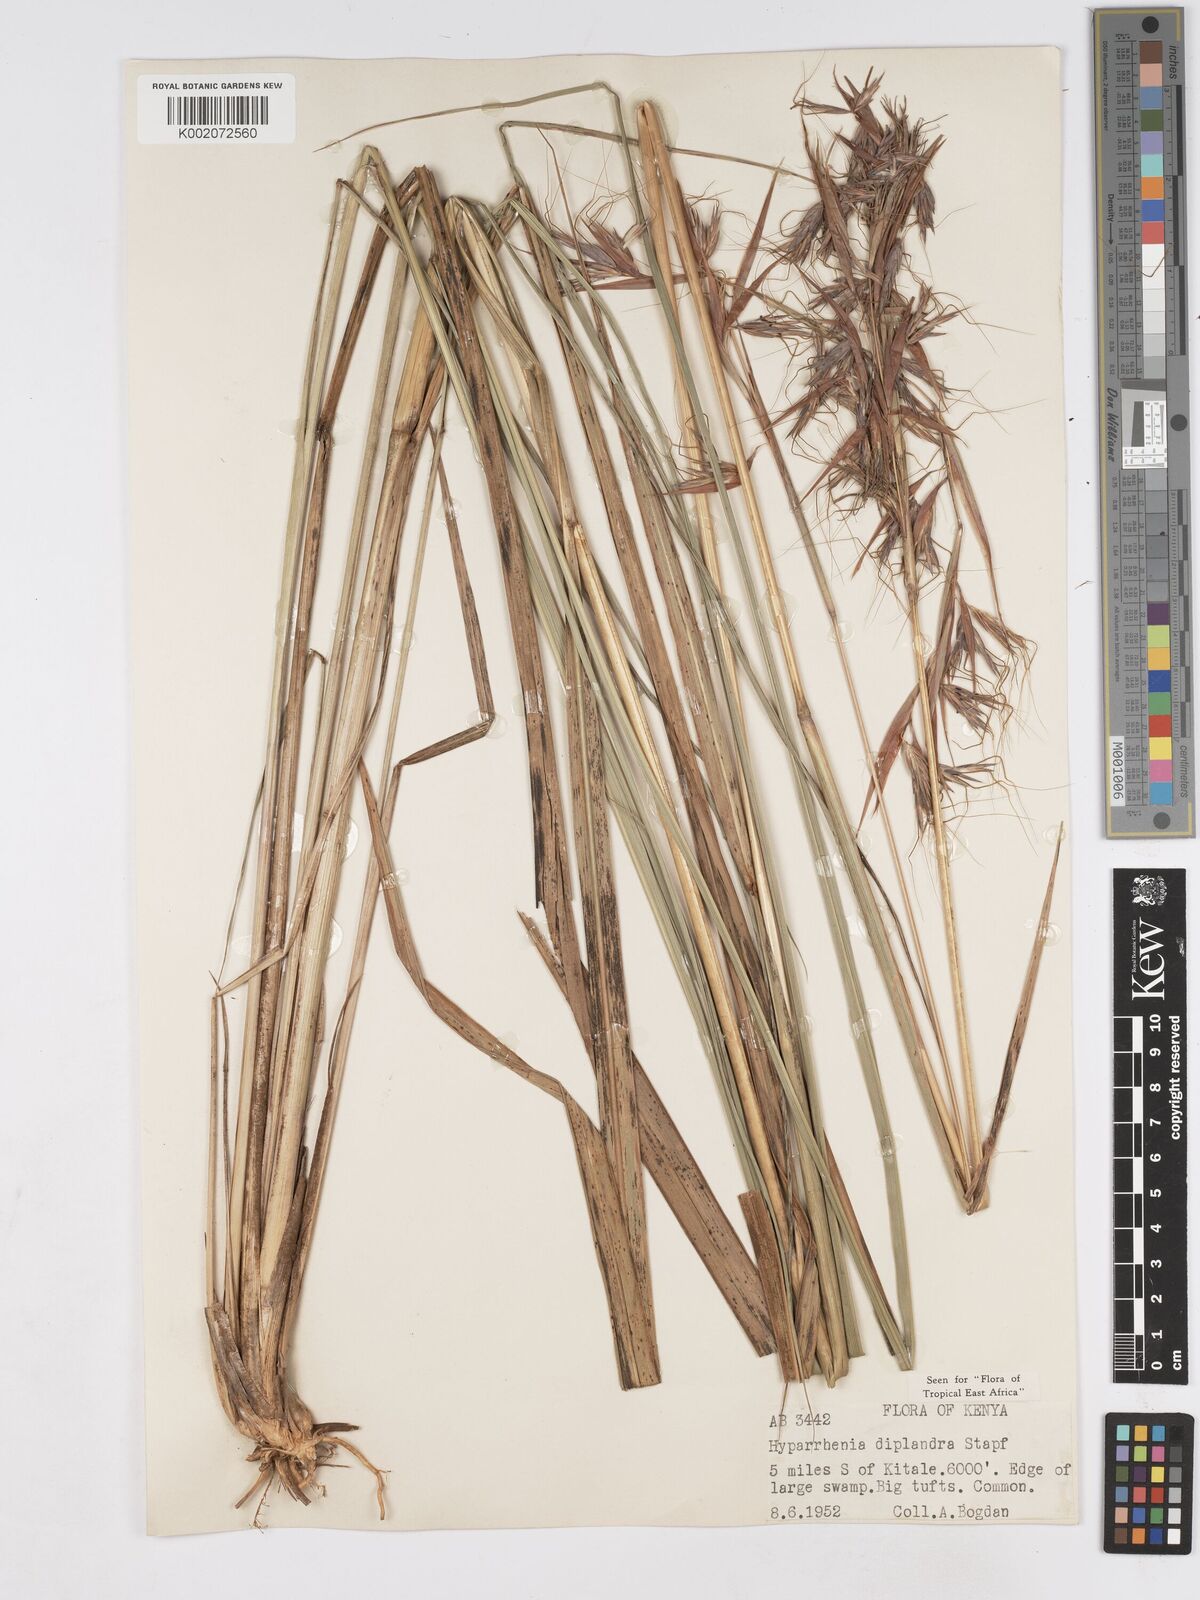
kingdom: Plantae
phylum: Tracheophyta
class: Liliopsida
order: Poales
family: Poaceae
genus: Hyparrhenia
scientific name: Hyparrhenia diplandra
